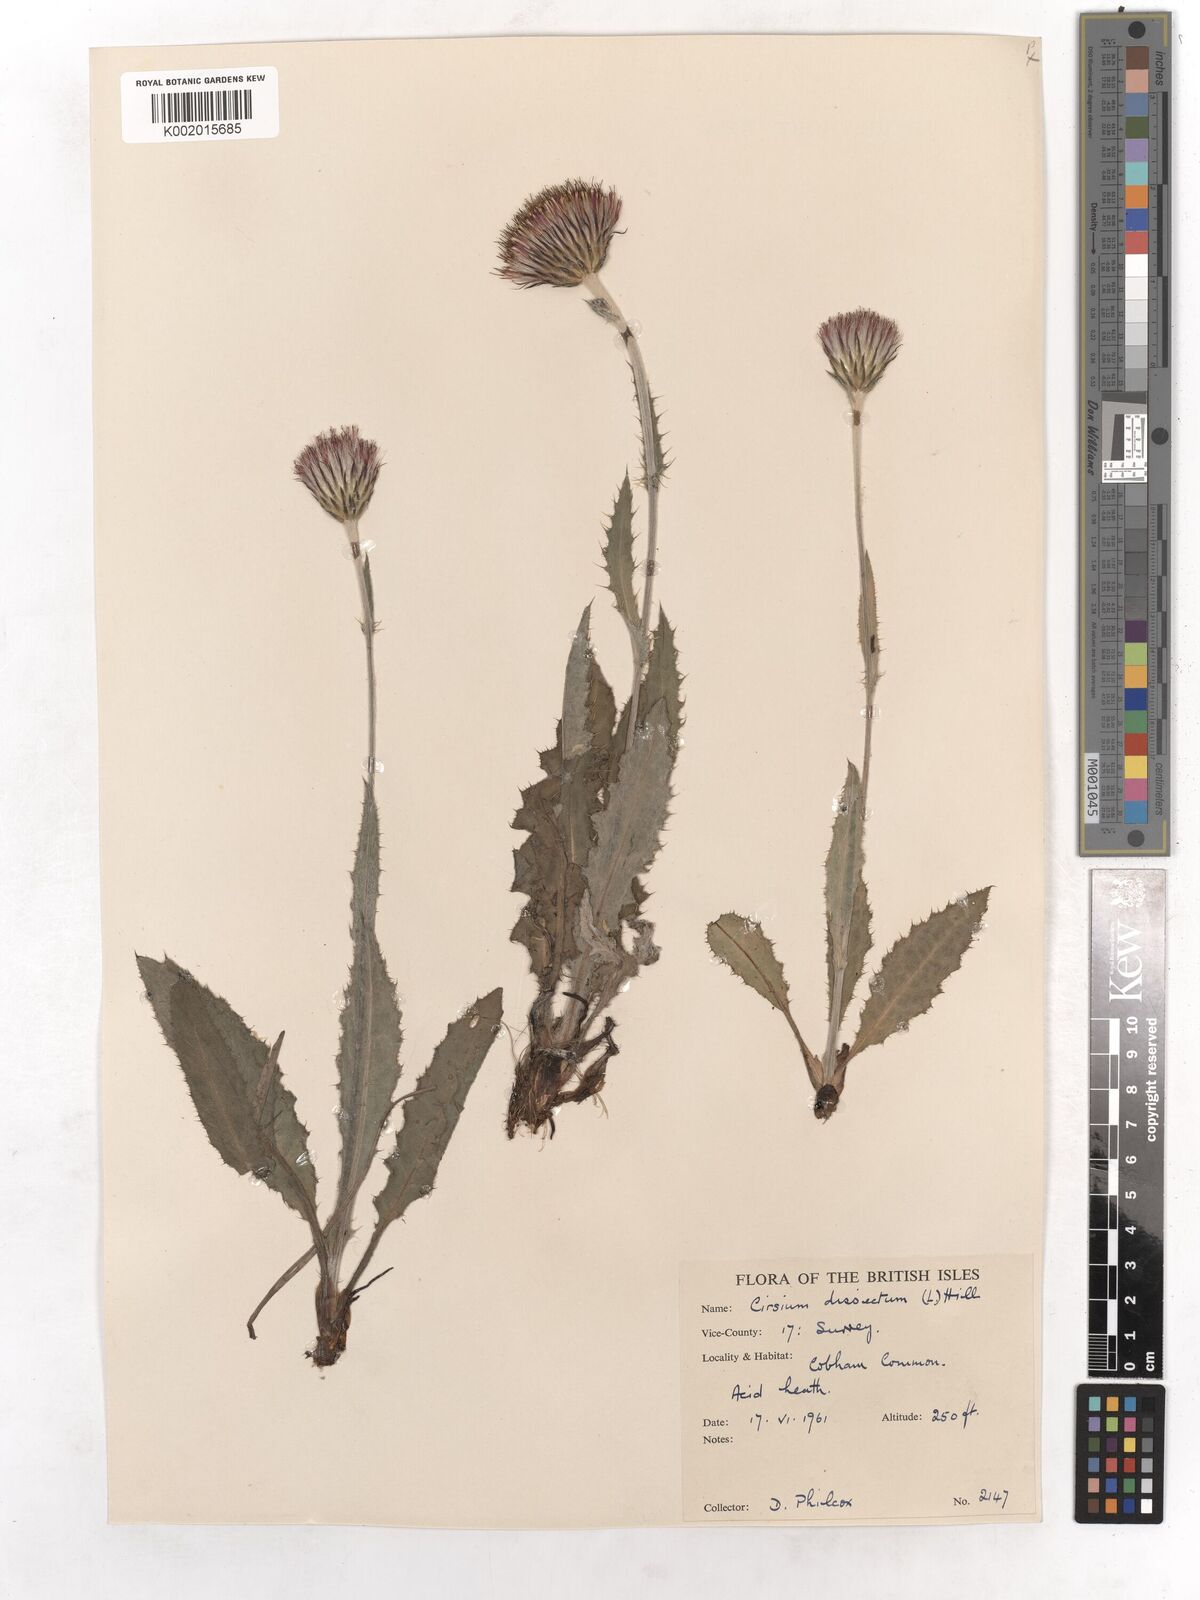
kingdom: Plantae
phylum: Tracheophyta
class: Magnoliopsida
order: Asterales
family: Asteraceae
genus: Cirsium
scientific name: Cirsium dissectum
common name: Meadow thistle
